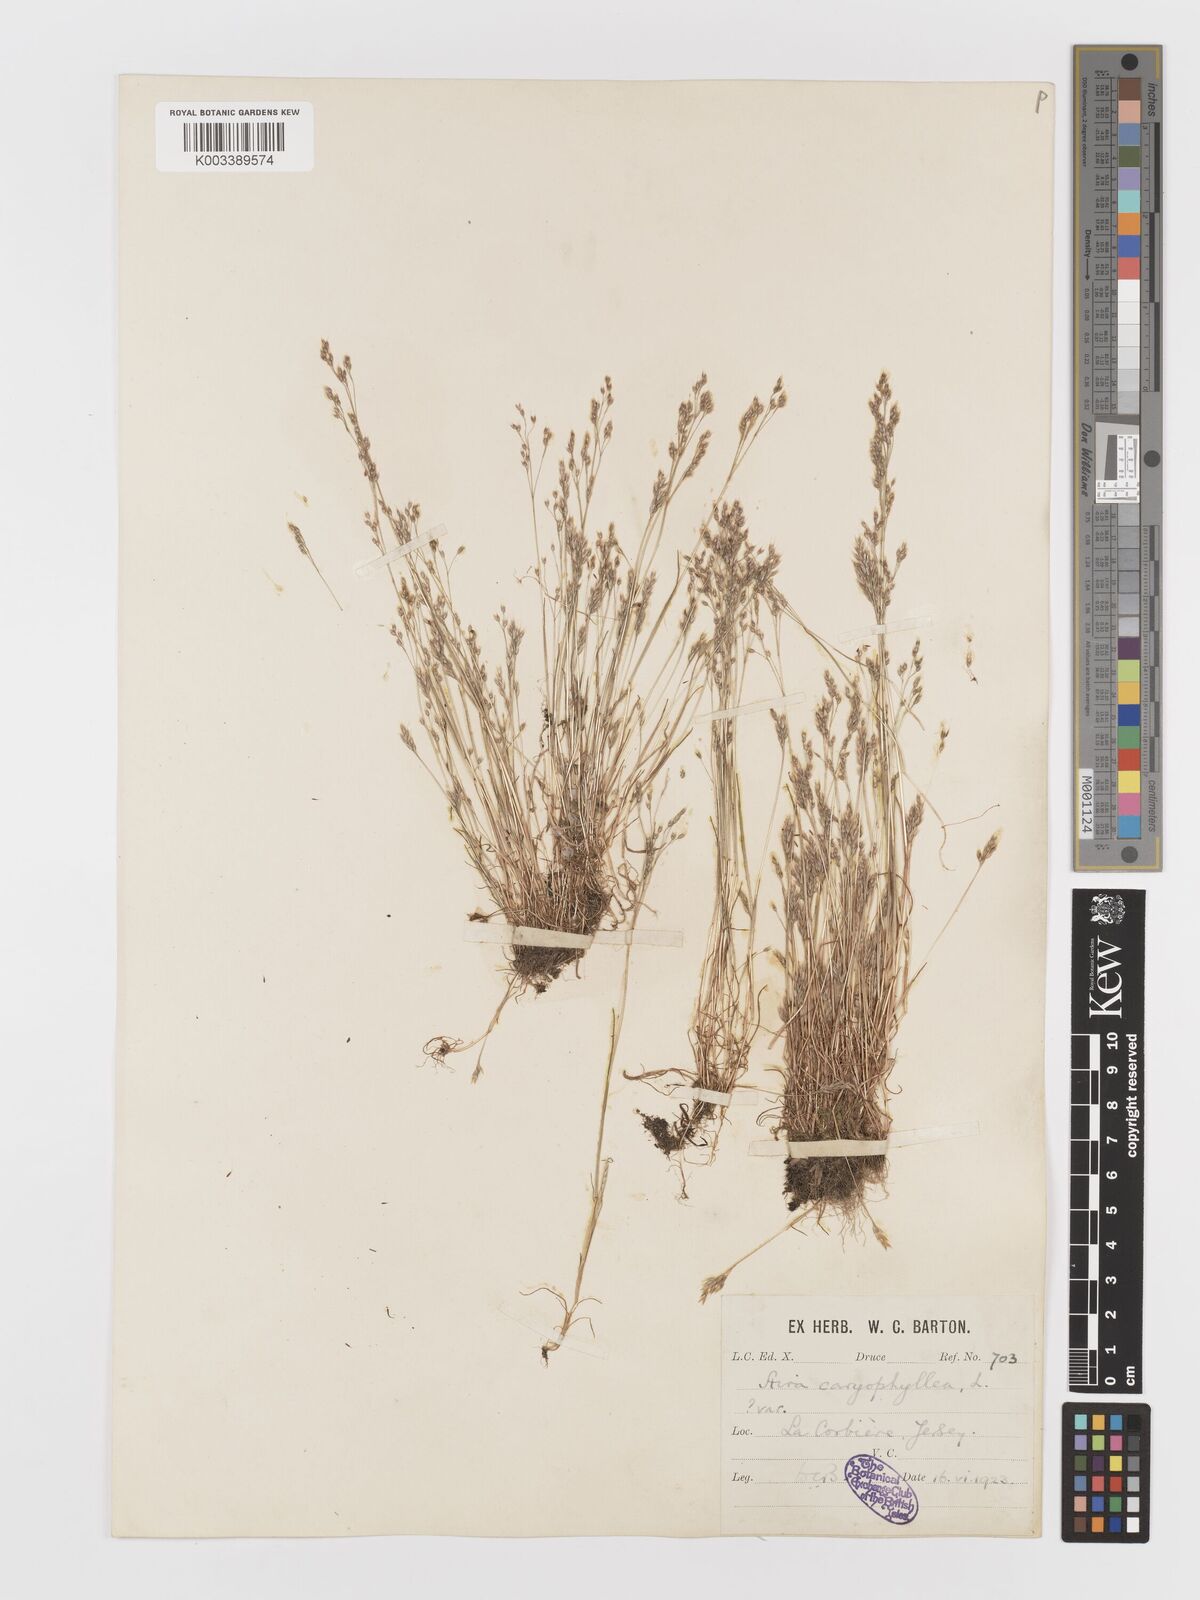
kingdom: Plantae
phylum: Tracheophyta
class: Liliopsida
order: Poales
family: Poaceae
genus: Aira
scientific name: Aira caryophyllea
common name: Silver hairgrass
